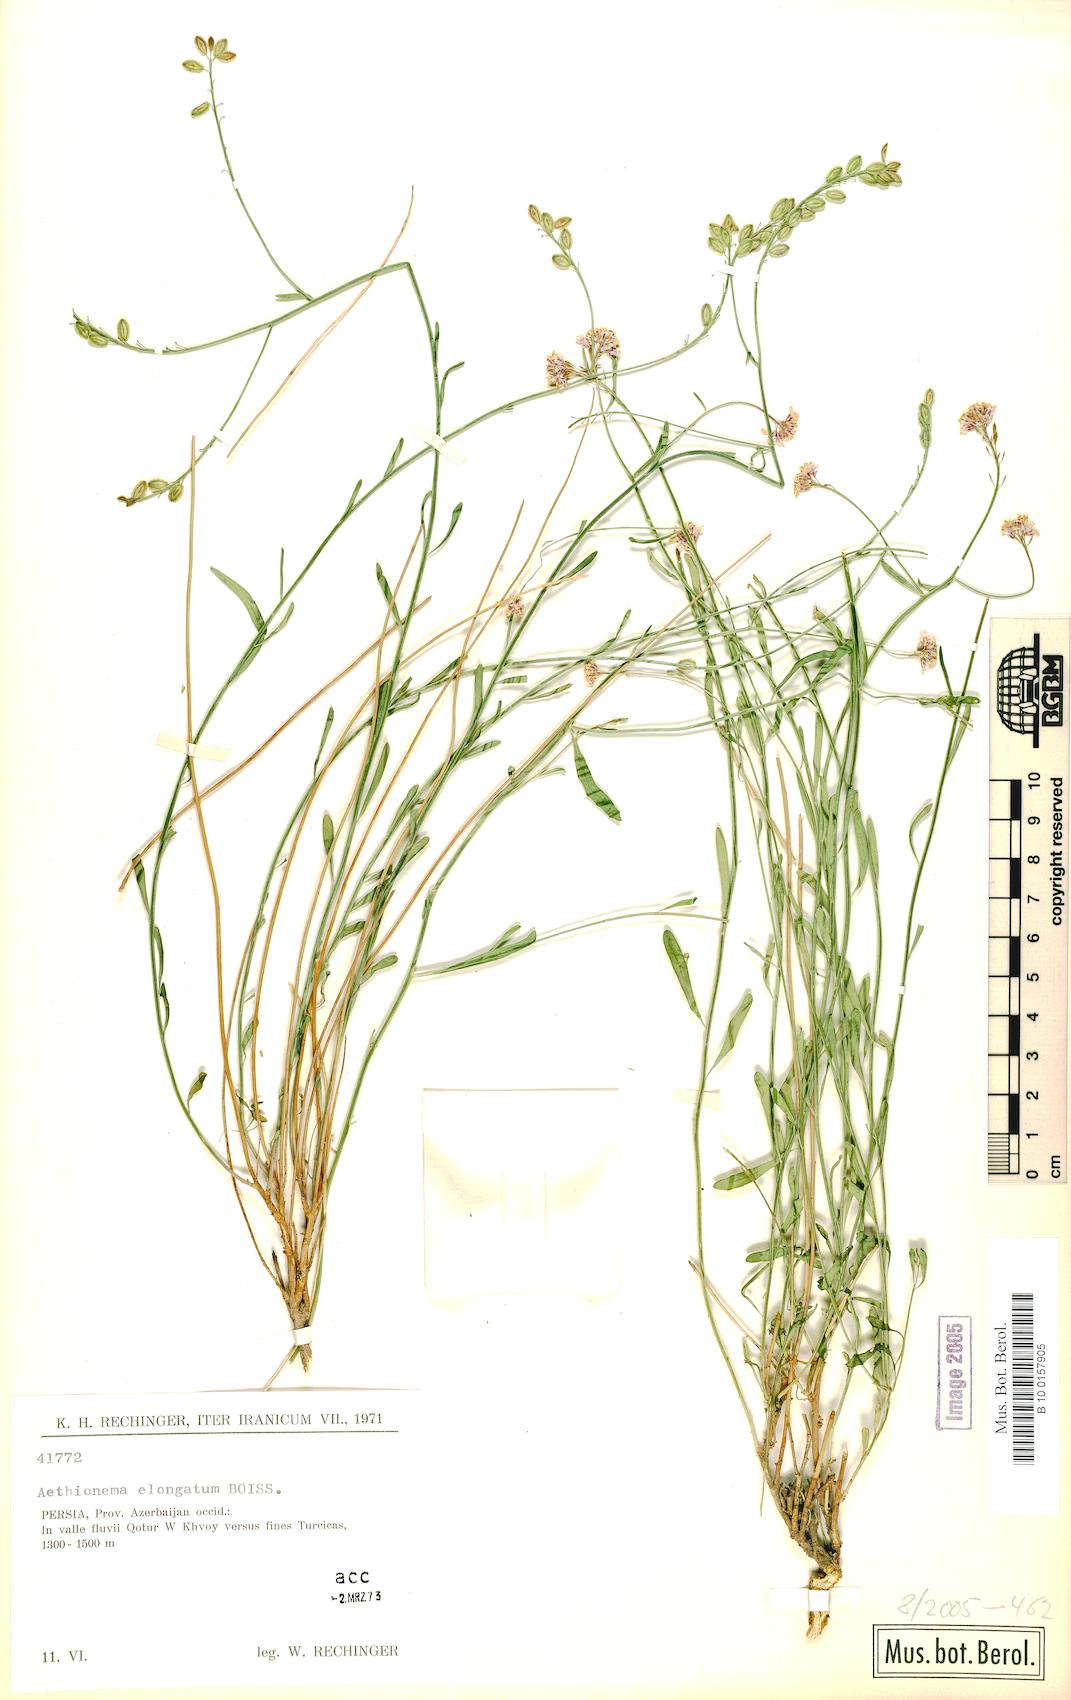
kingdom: Plantae
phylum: Tracheophyta
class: Magnoliopsida
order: Brassicales
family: Brassicaceae
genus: Aethionema
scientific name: Aethionema virgatum
